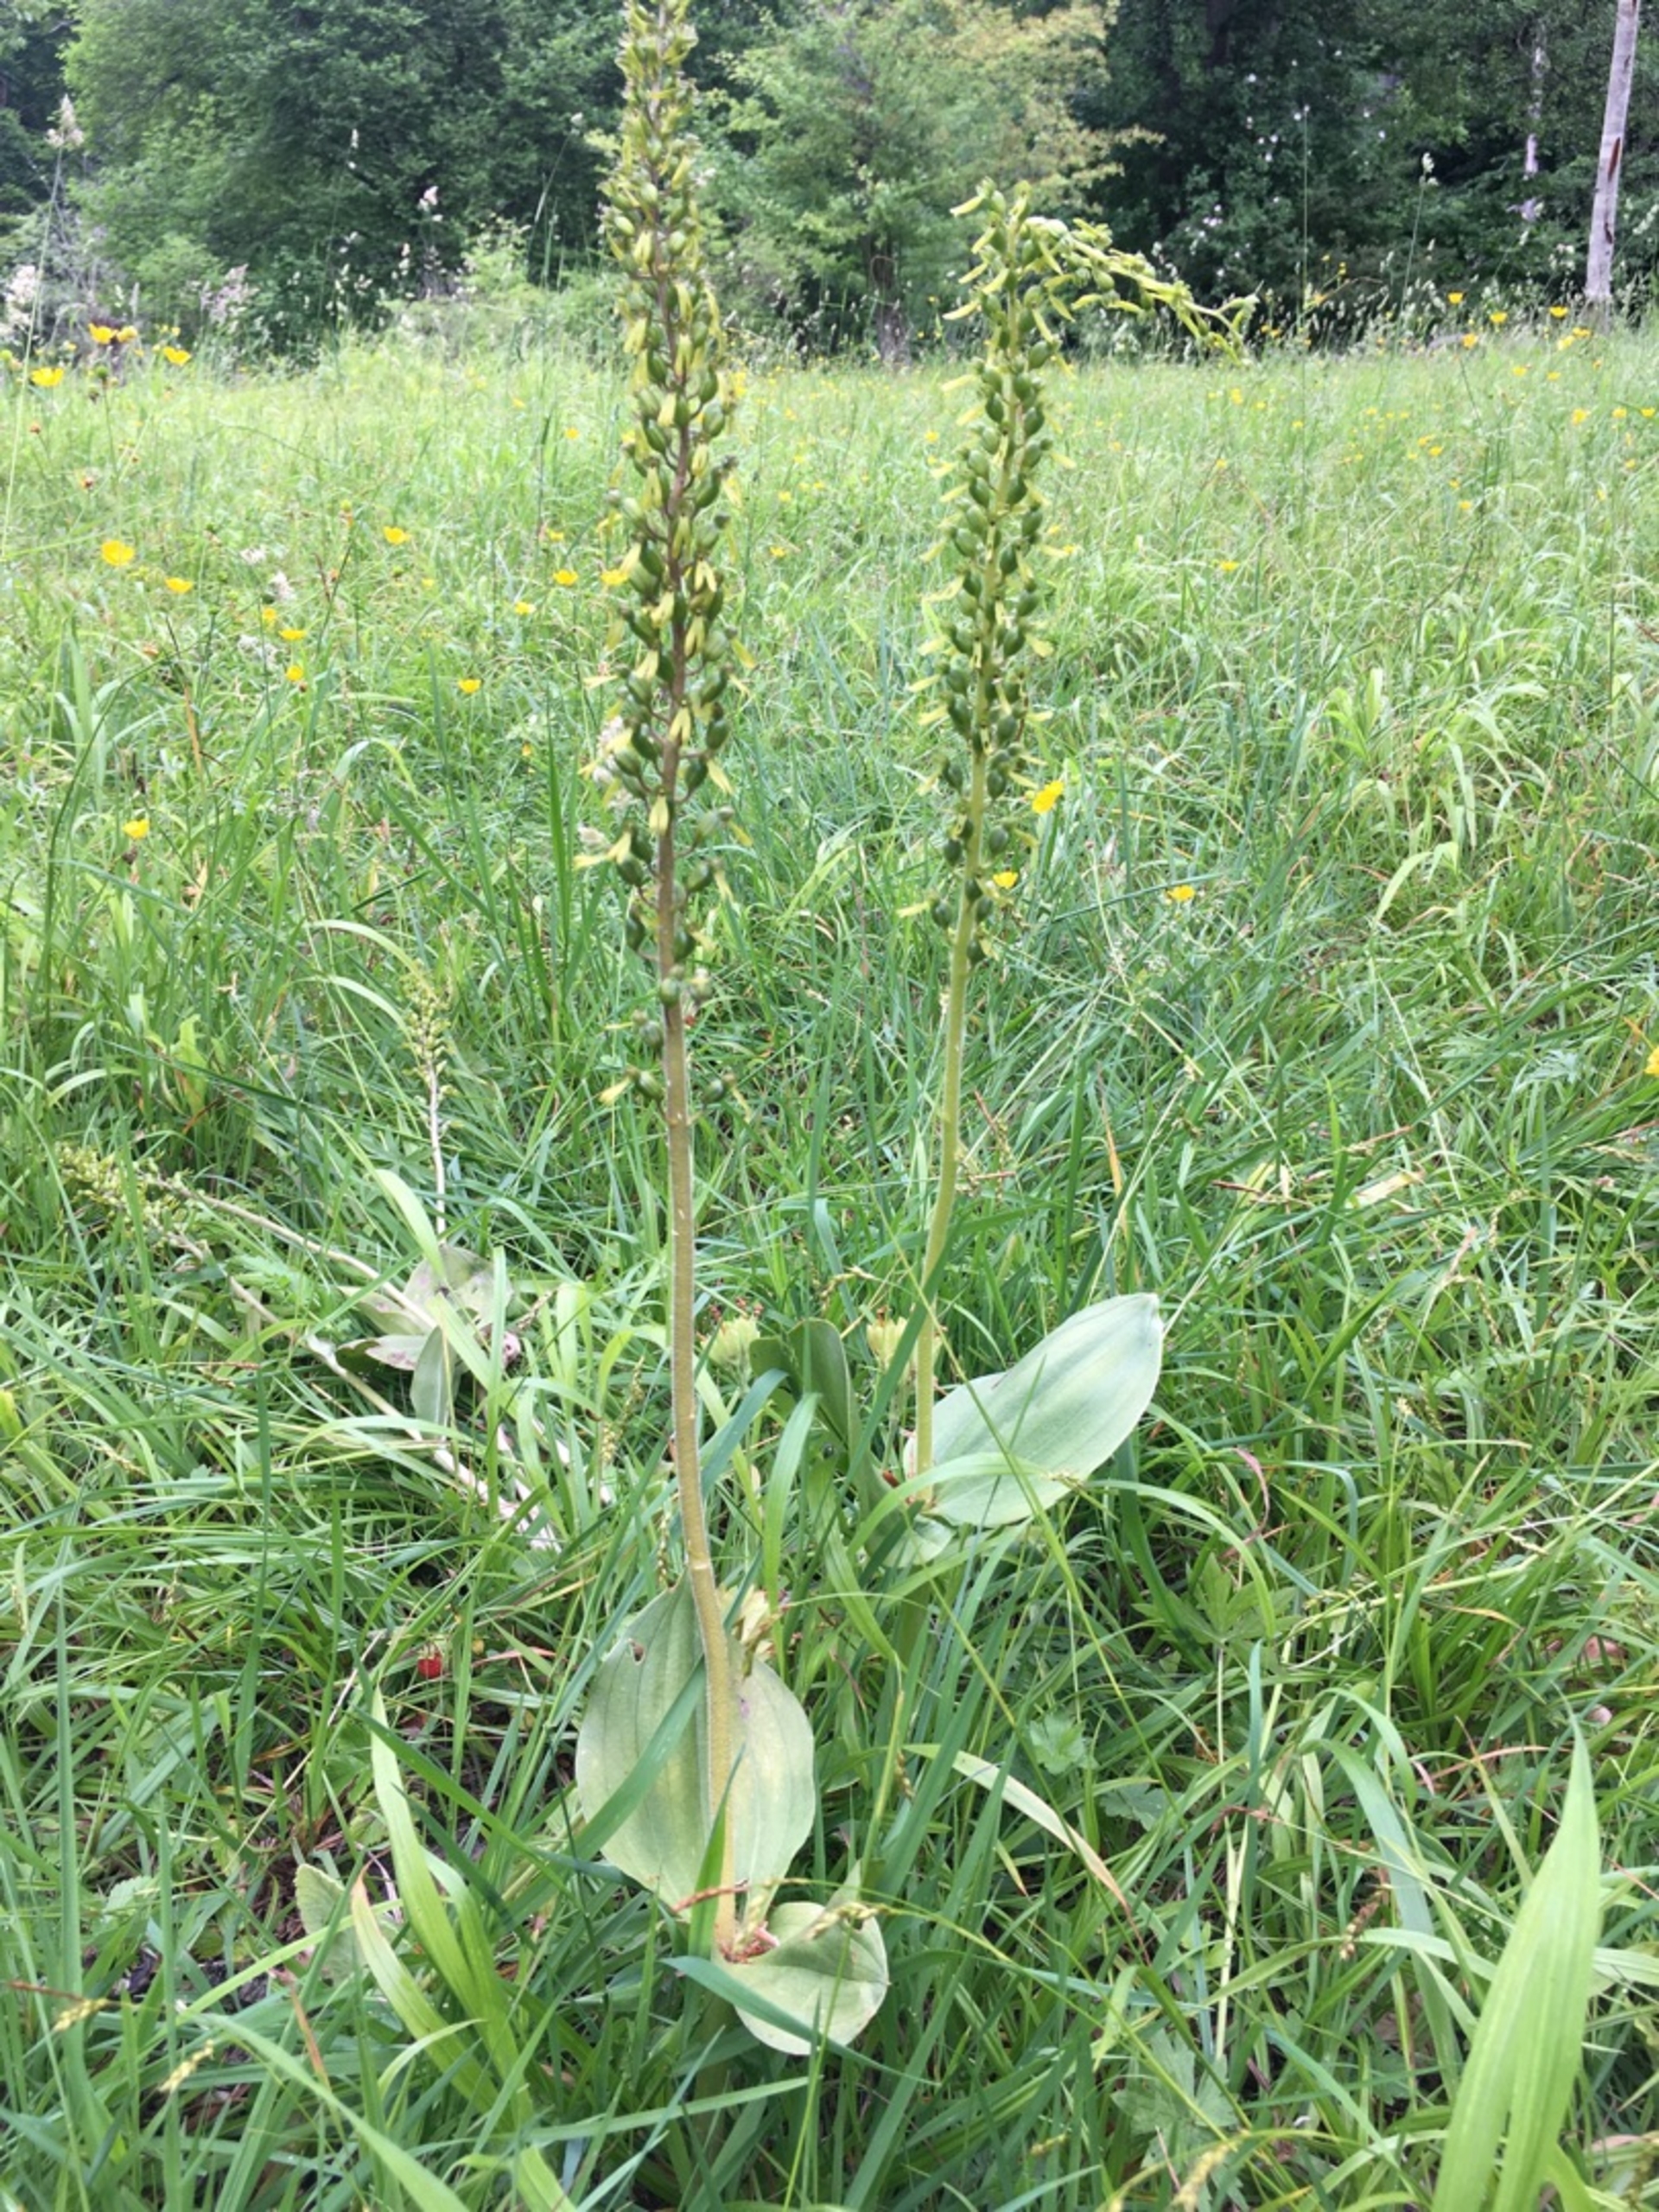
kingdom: Plantae
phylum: Tracheophyta
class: Liliopsida
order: Asparagales
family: Orchidaceae
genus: Neottia
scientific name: Neottia ovata
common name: Ægbladet fliglæbe
